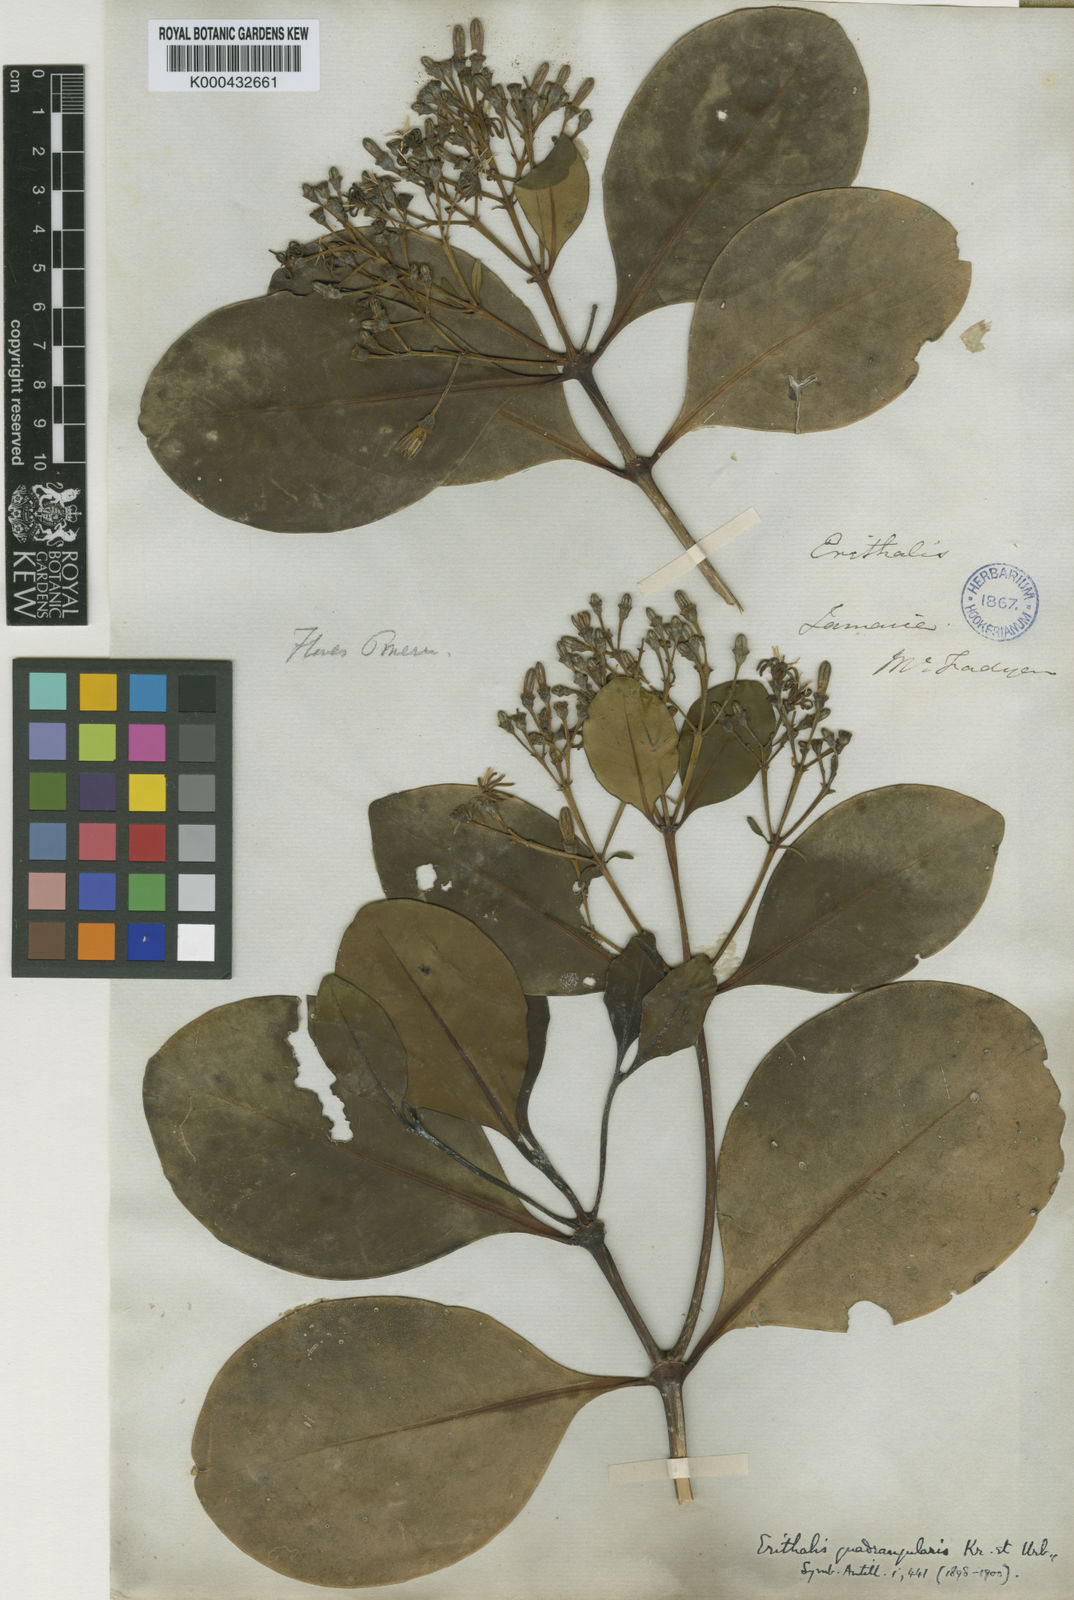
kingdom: Plantae
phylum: Tracheophyta
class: Magnoliopsida
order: Gentianales
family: Rubiaceae
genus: Erithalis
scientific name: Erithalis quadrangularis
